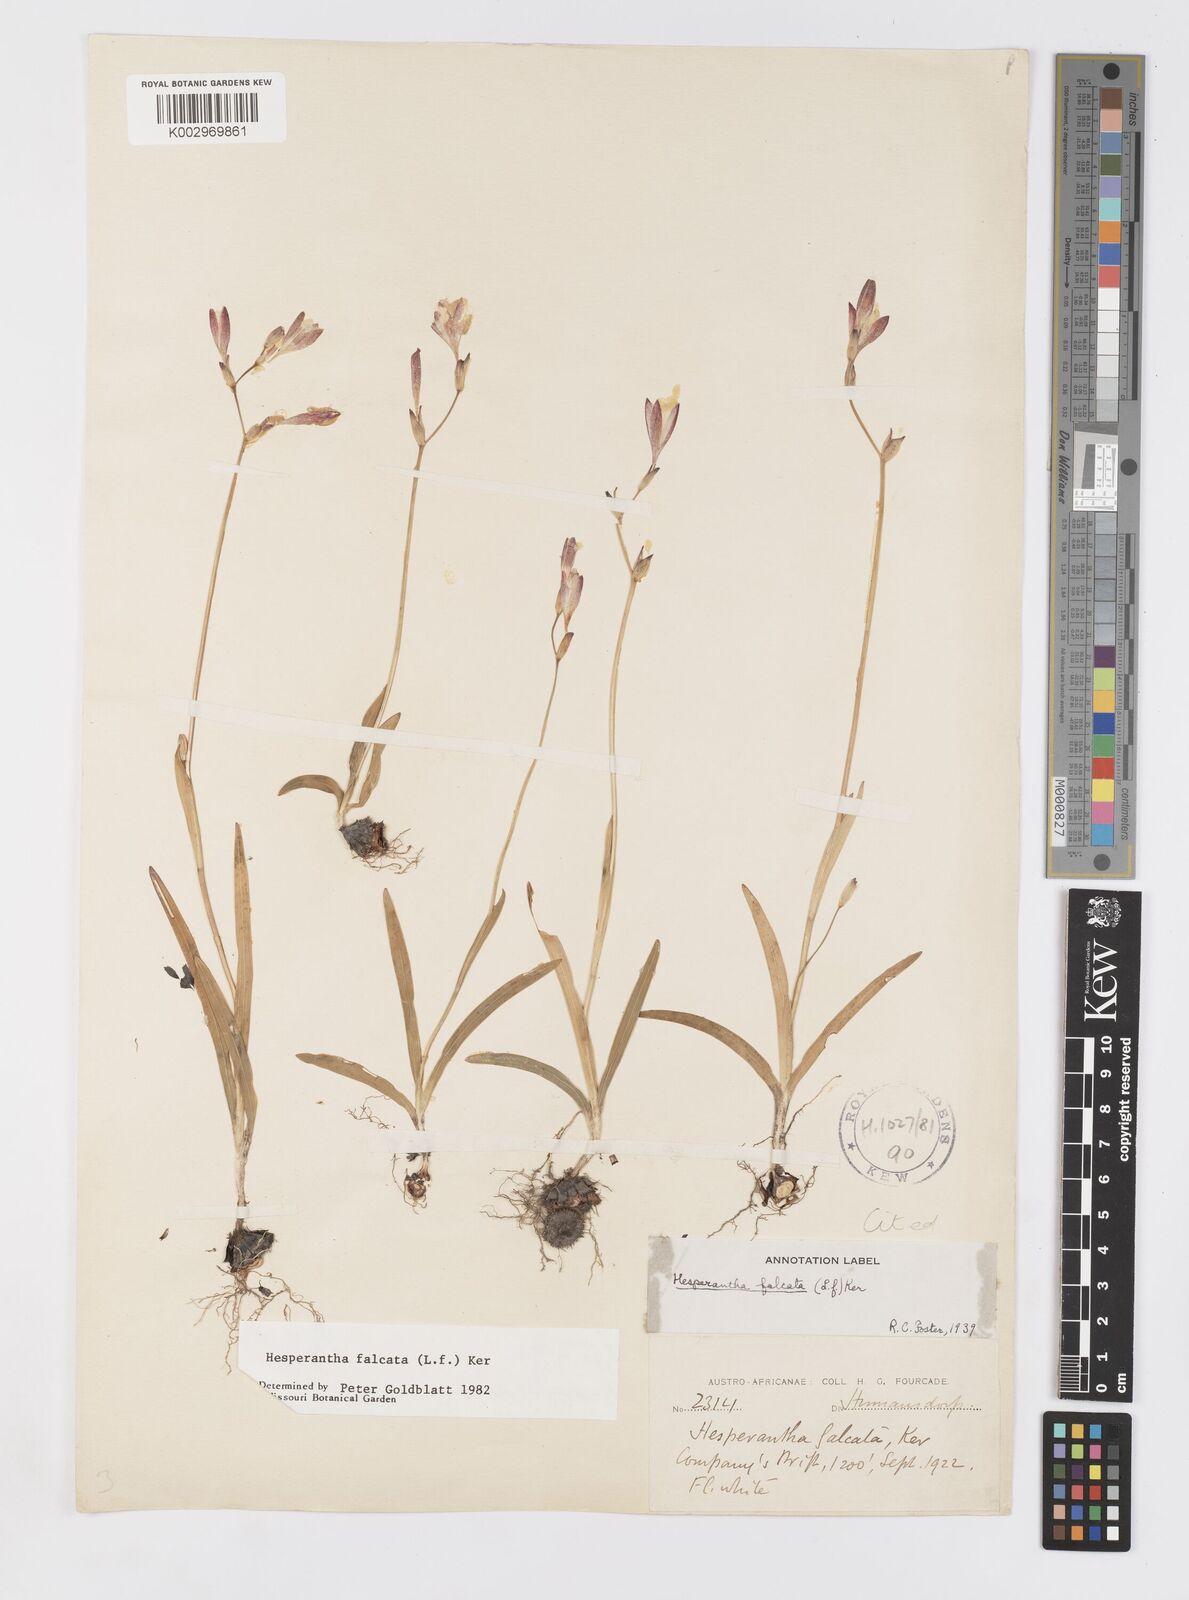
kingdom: Plantae
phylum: Tracheophyta
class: Liliopsida
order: Asparagales
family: Iridaceae
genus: Hesperantha
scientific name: Hesperantha falcata
